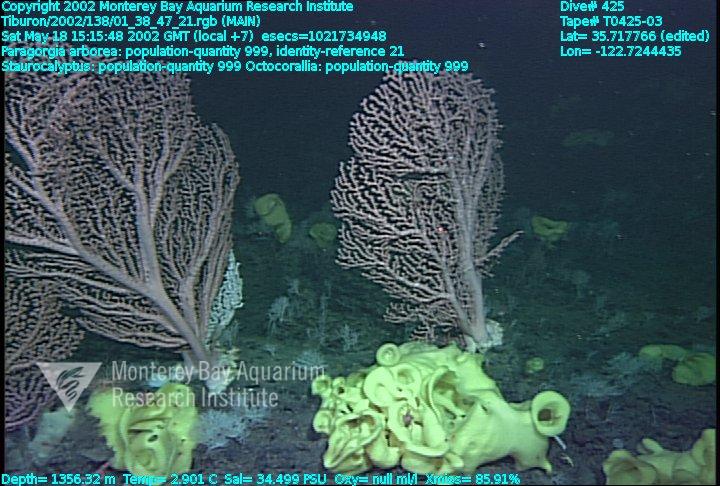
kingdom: Animalia
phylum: Porifera
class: Hexactinellida
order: Lyssacinosida
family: Rossellidae
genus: Staurocalyptus
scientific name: Staurocalyptus
